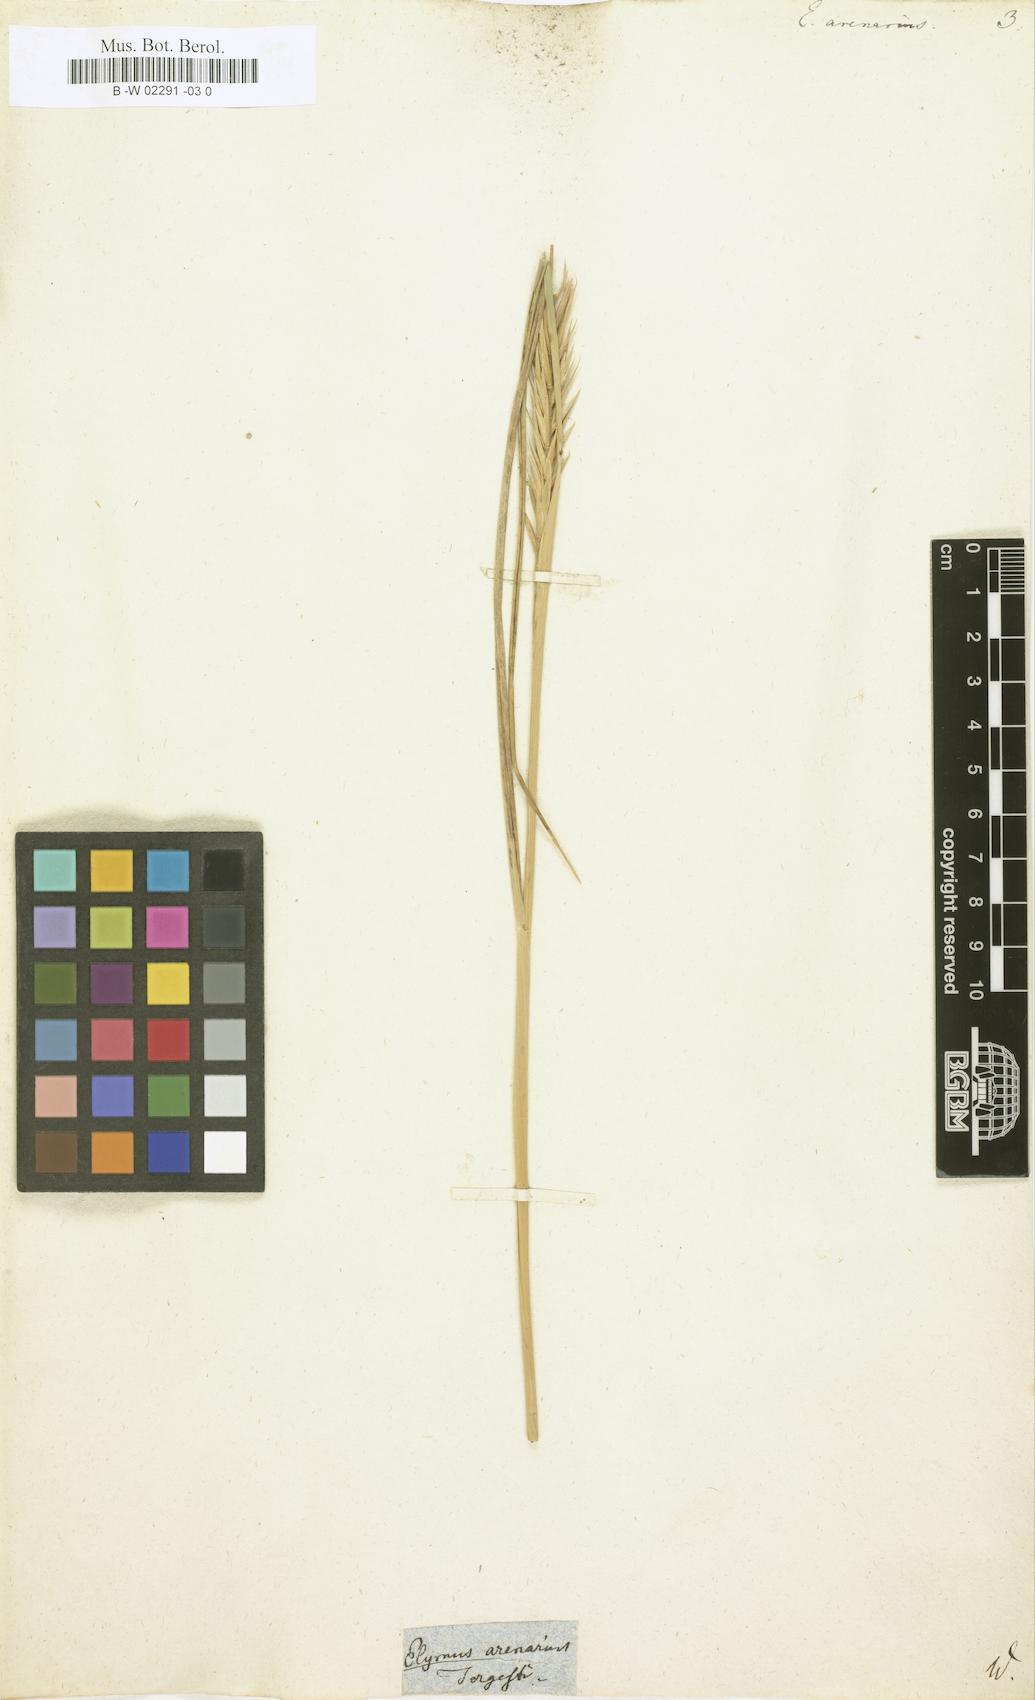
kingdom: Plantae
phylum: Tracheophyta
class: Liliopsida
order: Poales
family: Poaceae
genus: Elymus
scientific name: Elymus arenarius
